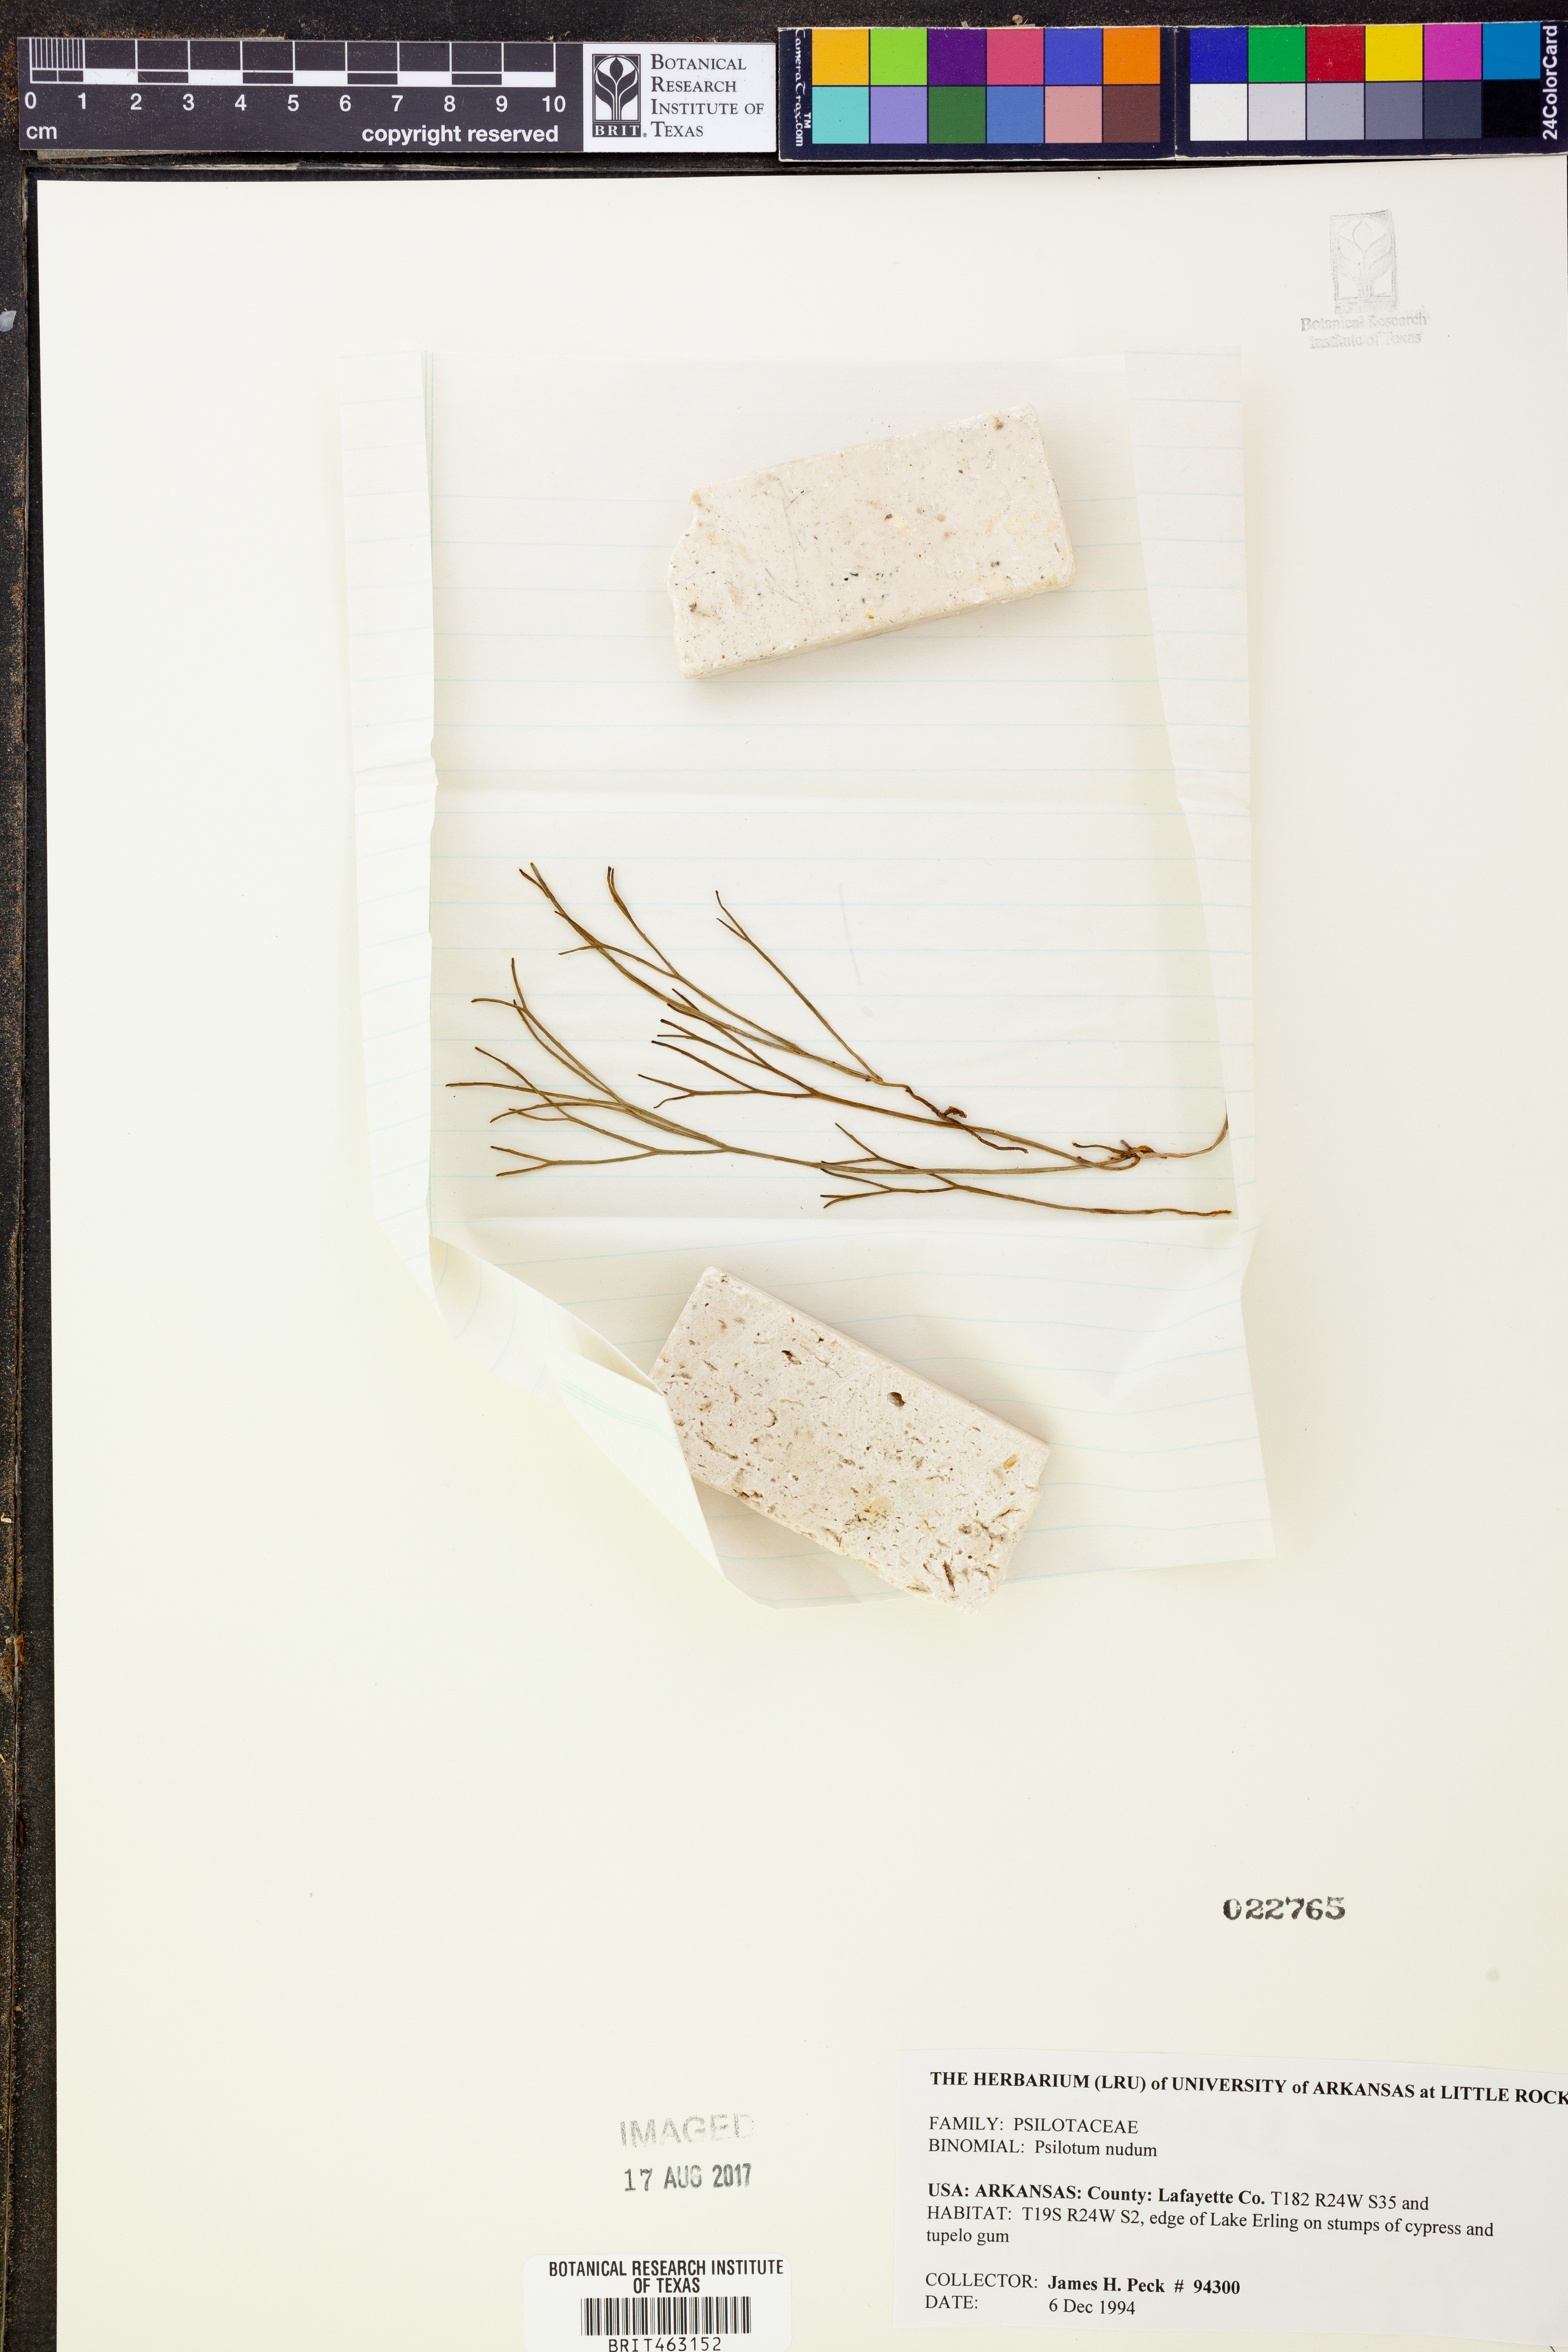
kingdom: Plantae
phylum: Tracheophyta
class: Polypodiopsida
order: Psilotales
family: Psilotaceae
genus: Psilotum
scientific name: Psilotum nudum
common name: Skeleton fork fern
